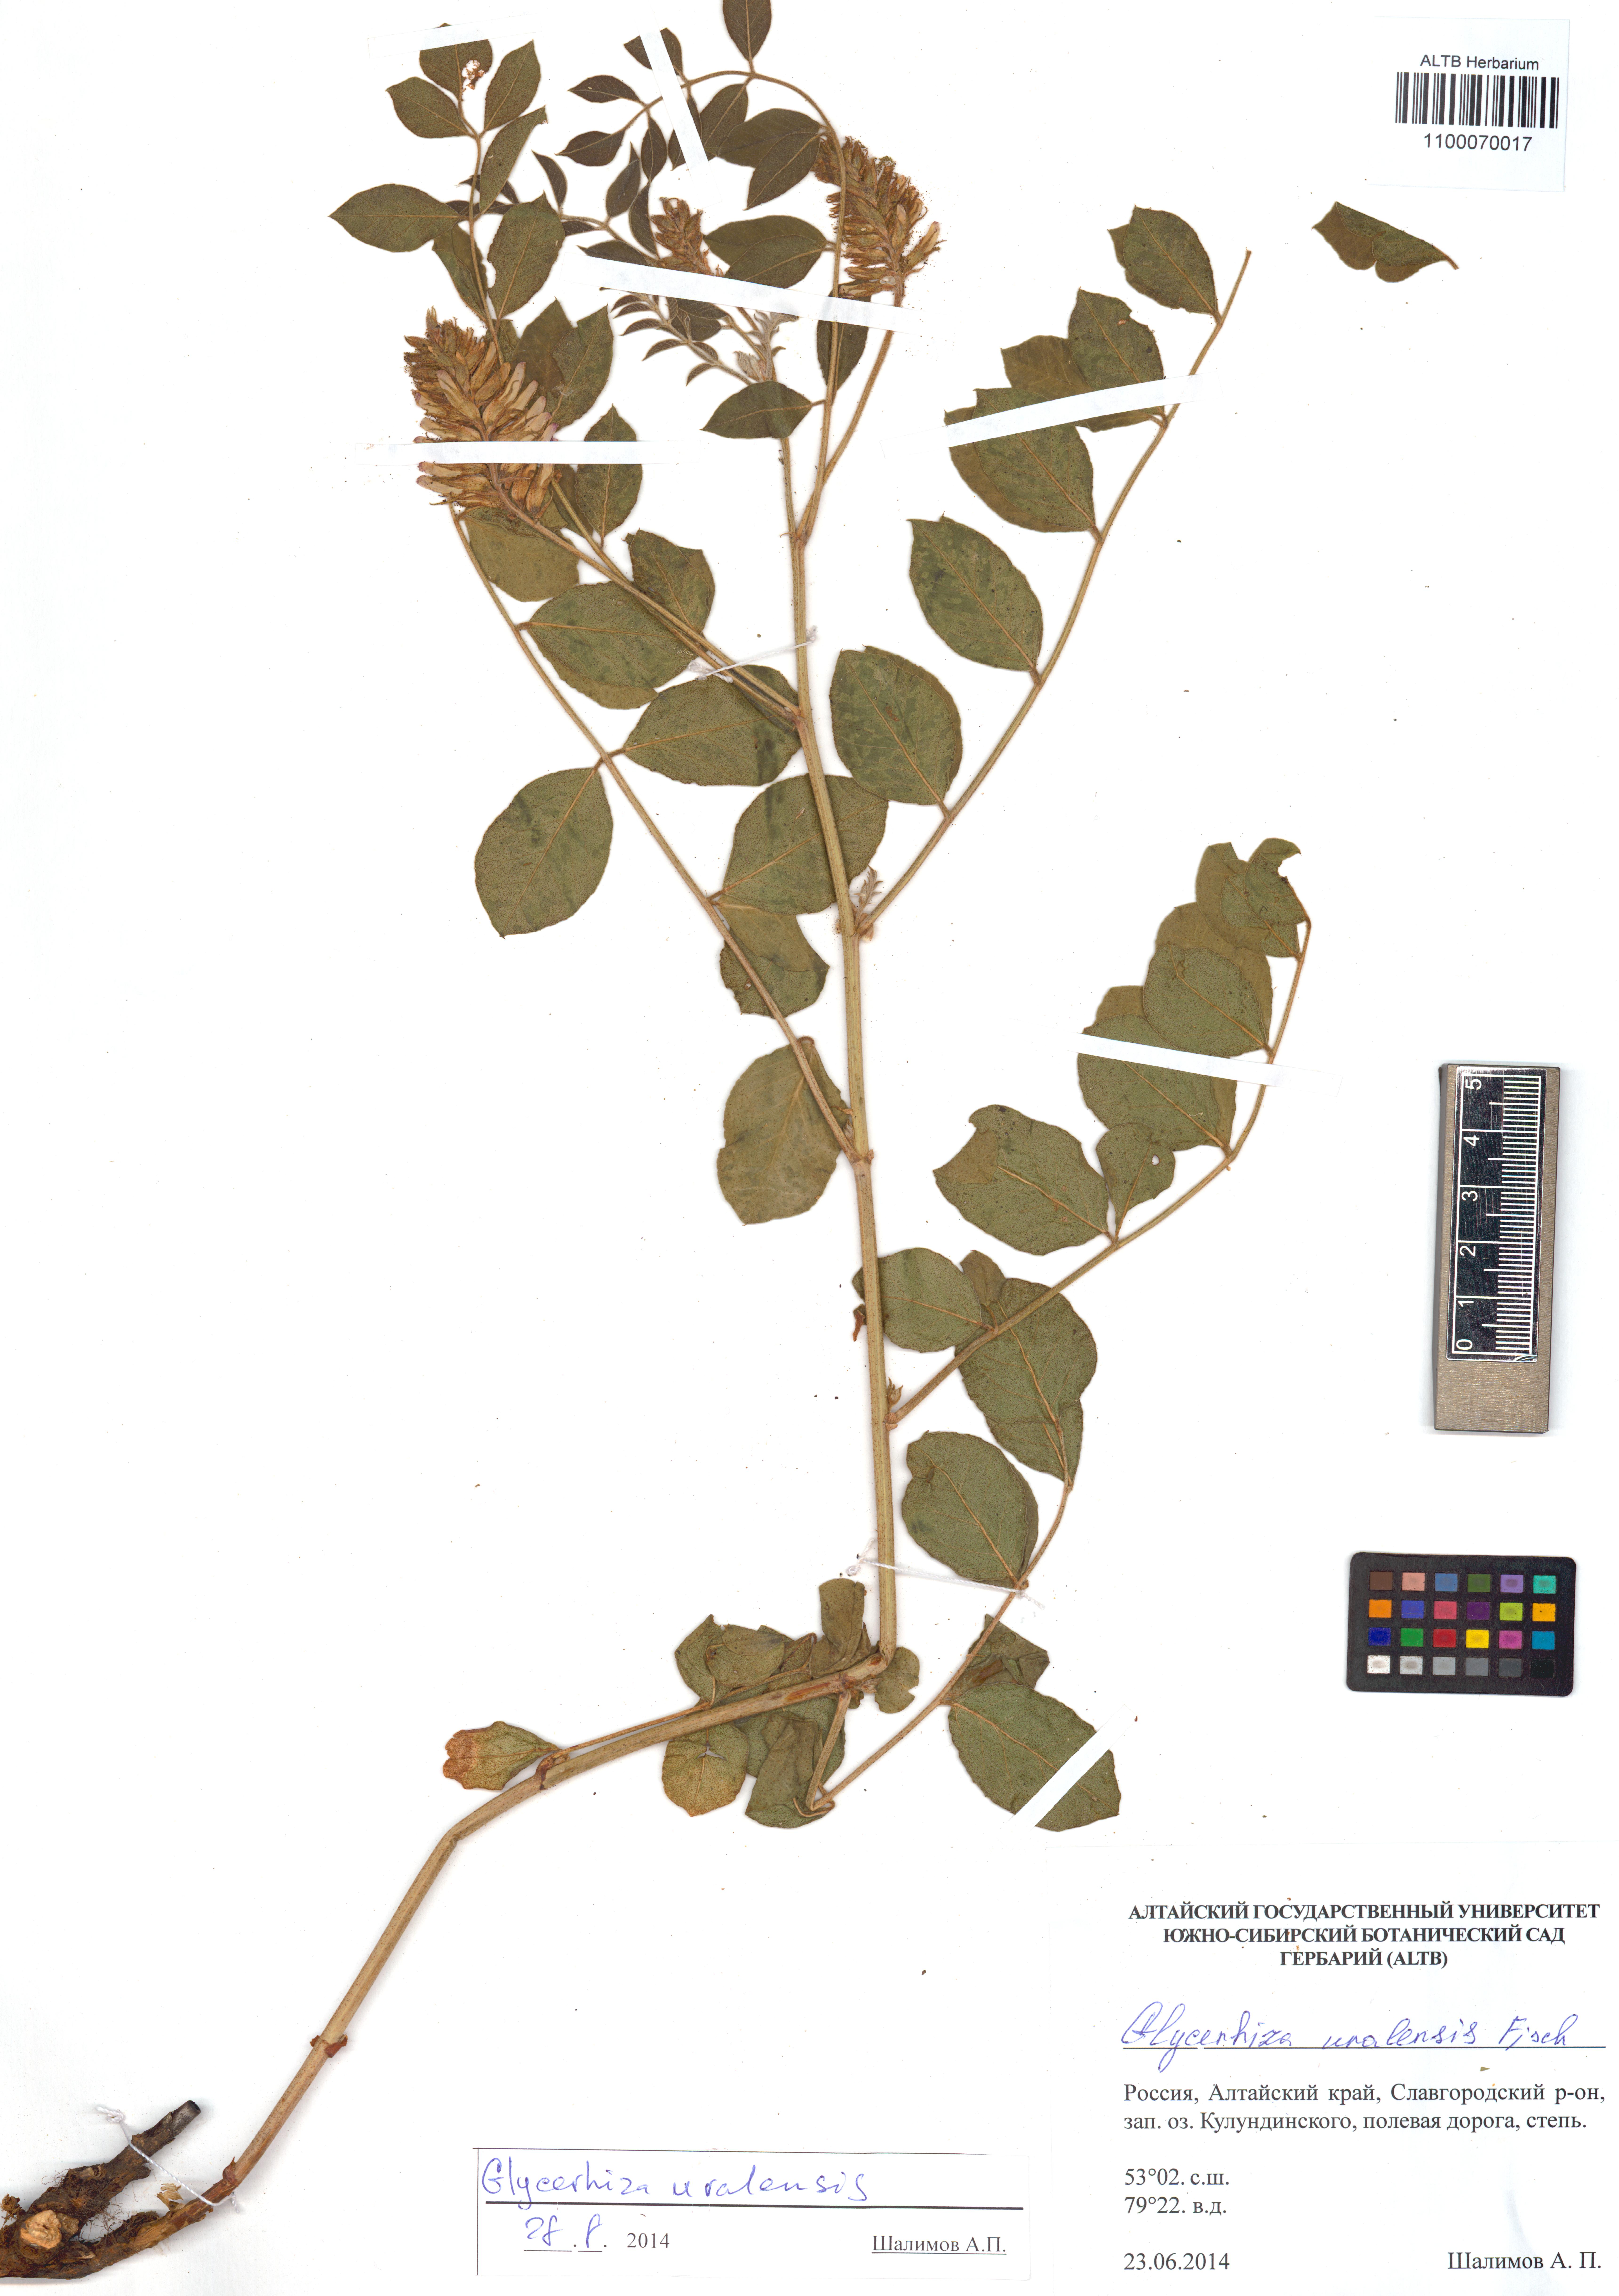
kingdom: Plantae
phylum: Tracheophyta
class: Magnoliopsida
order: Fabales
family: Fabaceae
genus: Glycyrrhiza
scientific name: Glycyrrhiza uralensis
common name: Chinese licorice
